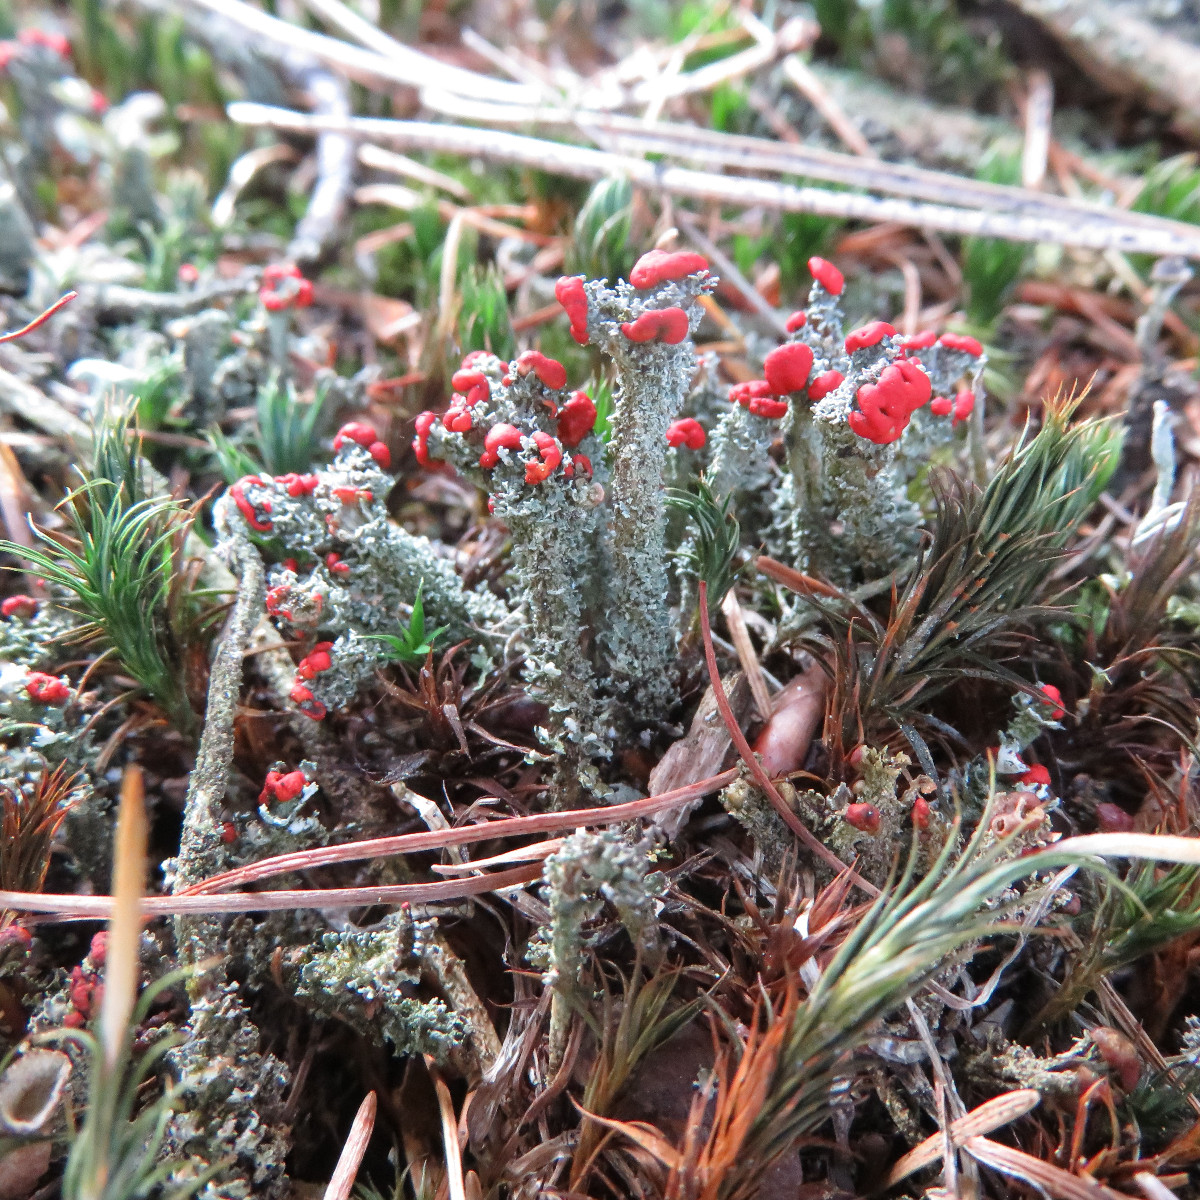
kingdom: Fungi
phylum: Ascomycota
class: Lecanoromycetes
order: Lecanorales
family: Cladoniaceae
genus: Cladonia
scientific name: Cladonia floerkeana
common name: lakrød bægerlav
